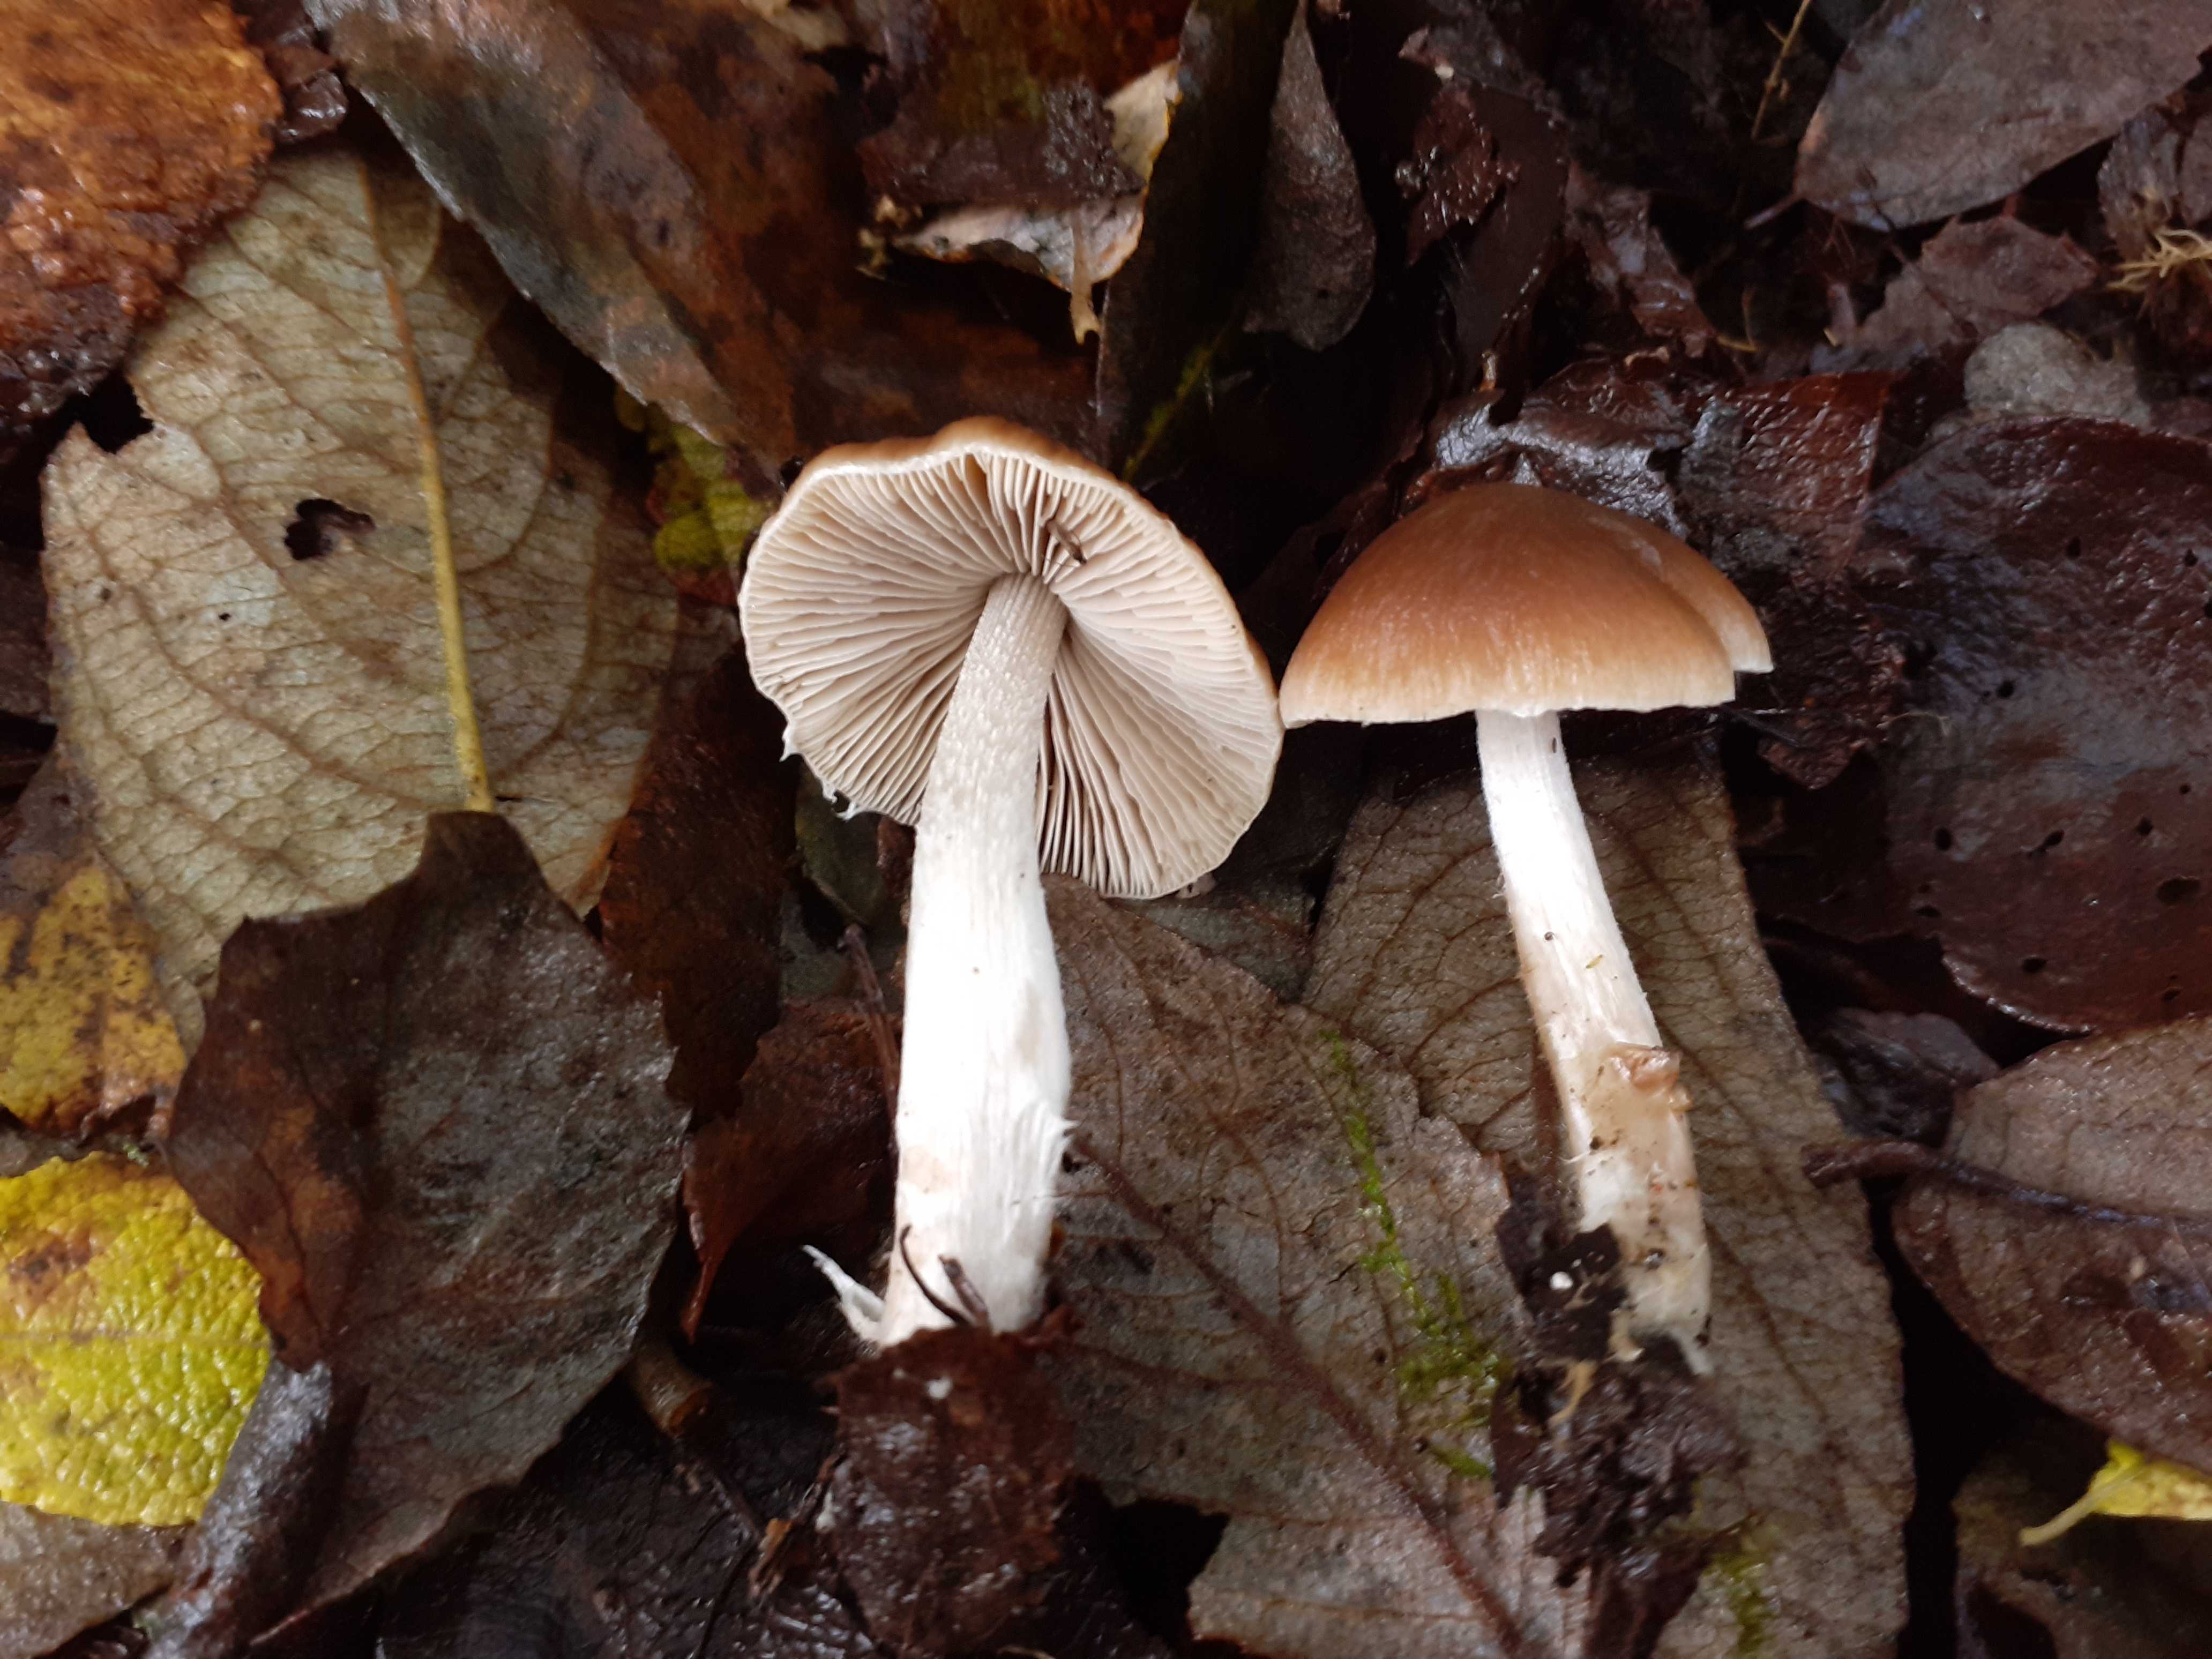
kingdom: Fungi
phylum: Basidiomycota
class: Agaricomycetes
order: Agaricales
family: Psathyrellaceae
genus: Psathyrella
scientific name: Psathyrella olympiana
